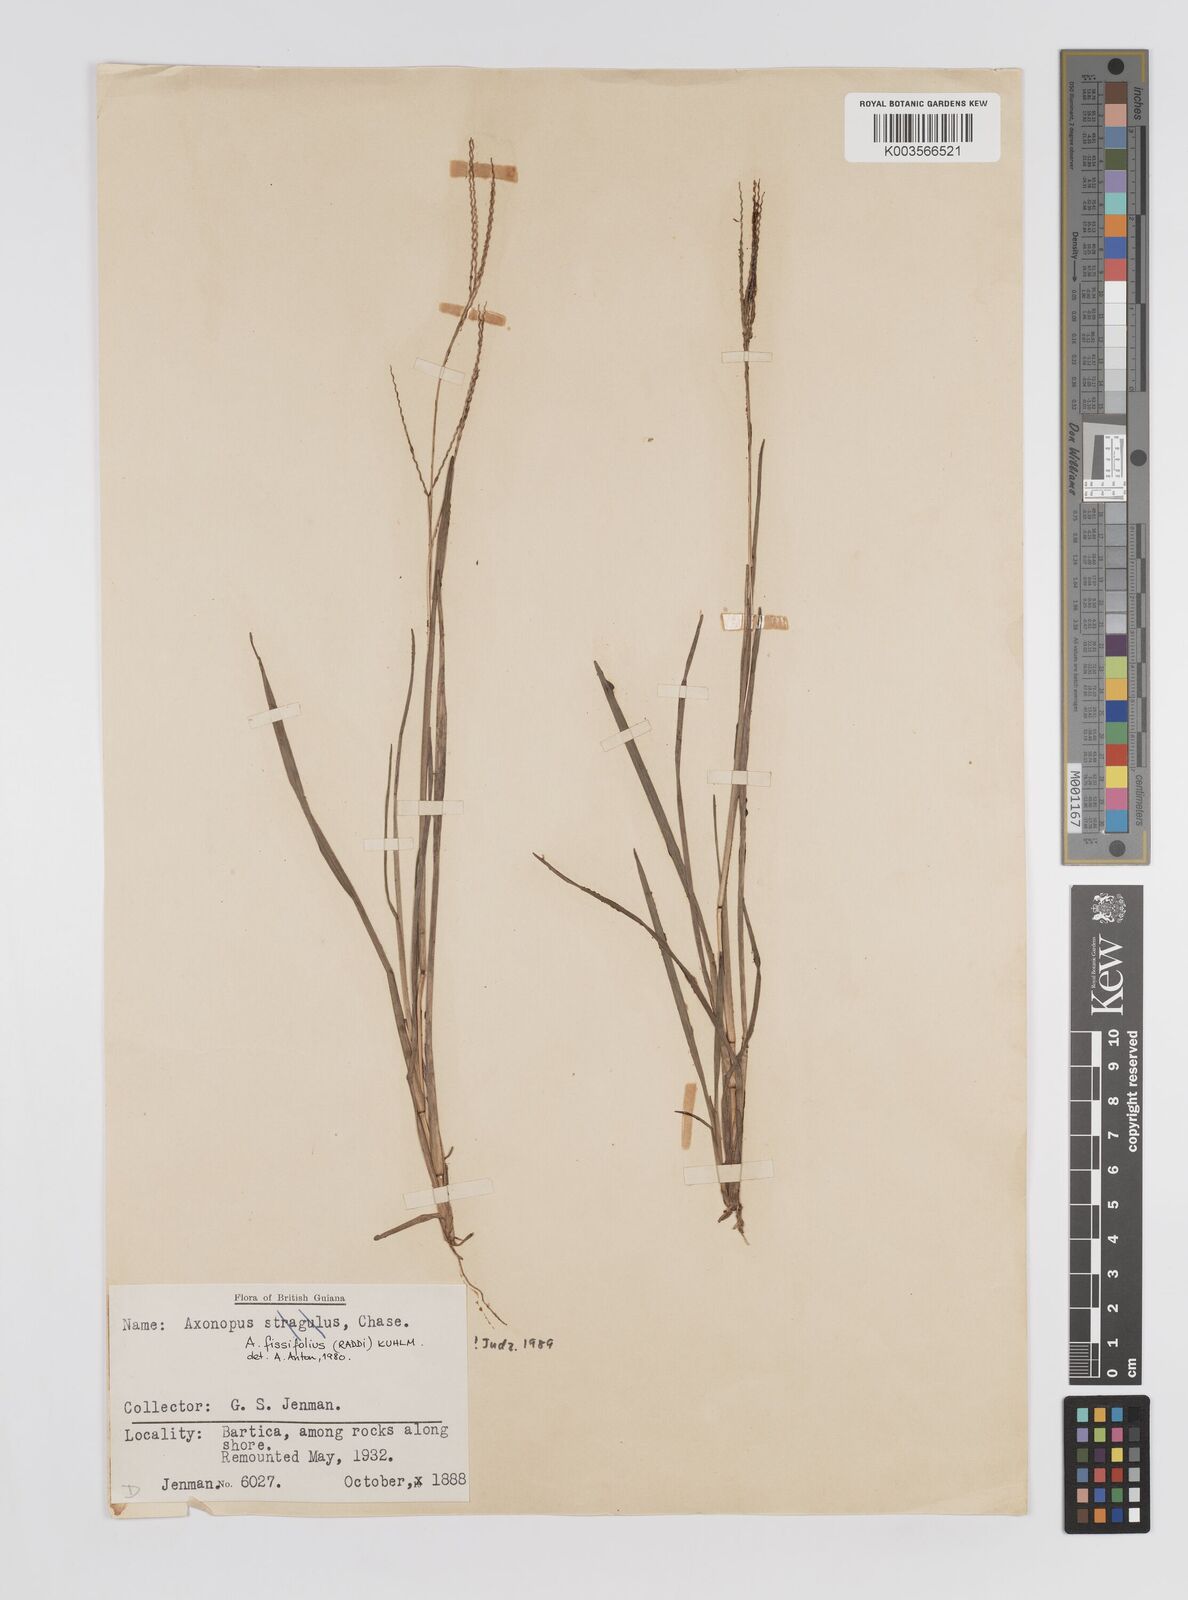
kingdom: Plantae
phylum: Tracheophyta
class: Liliopsida
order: Poales
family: Poaceae
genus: Axonopus
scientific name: Axonopus fissifolius
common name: Common carpetgrass
